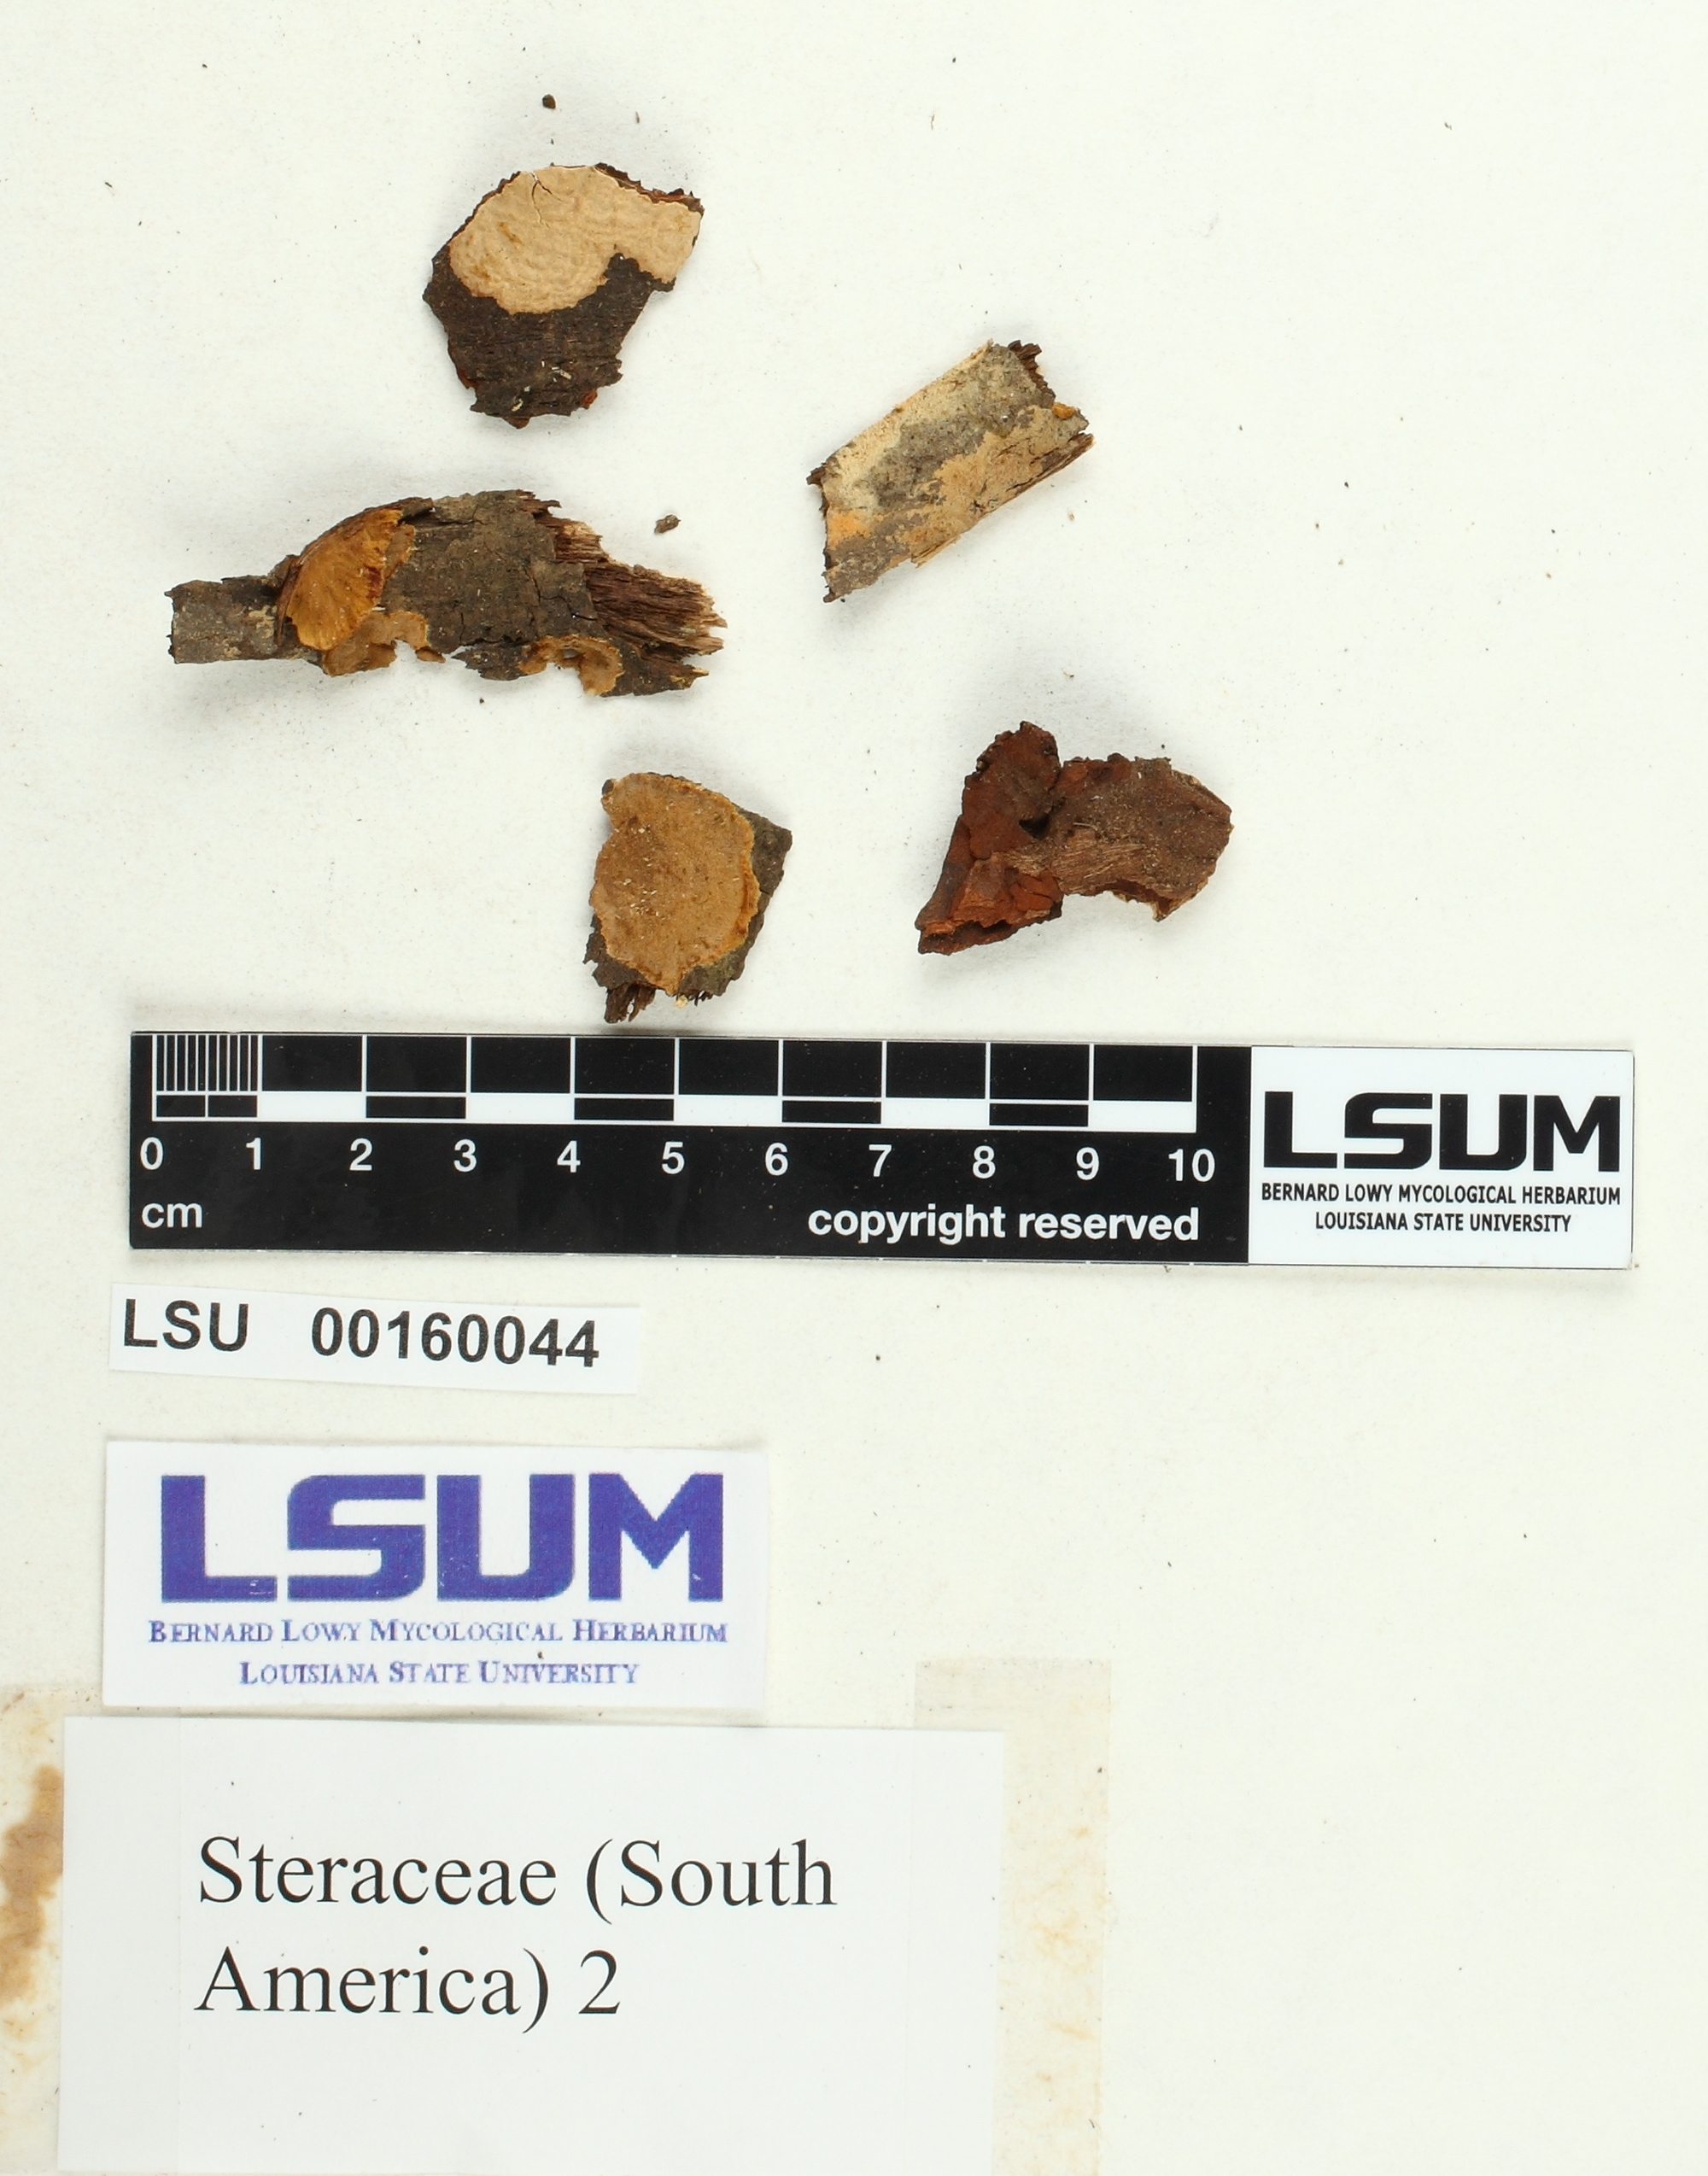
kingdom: Fungi
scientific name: Fungi
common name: Fungi
